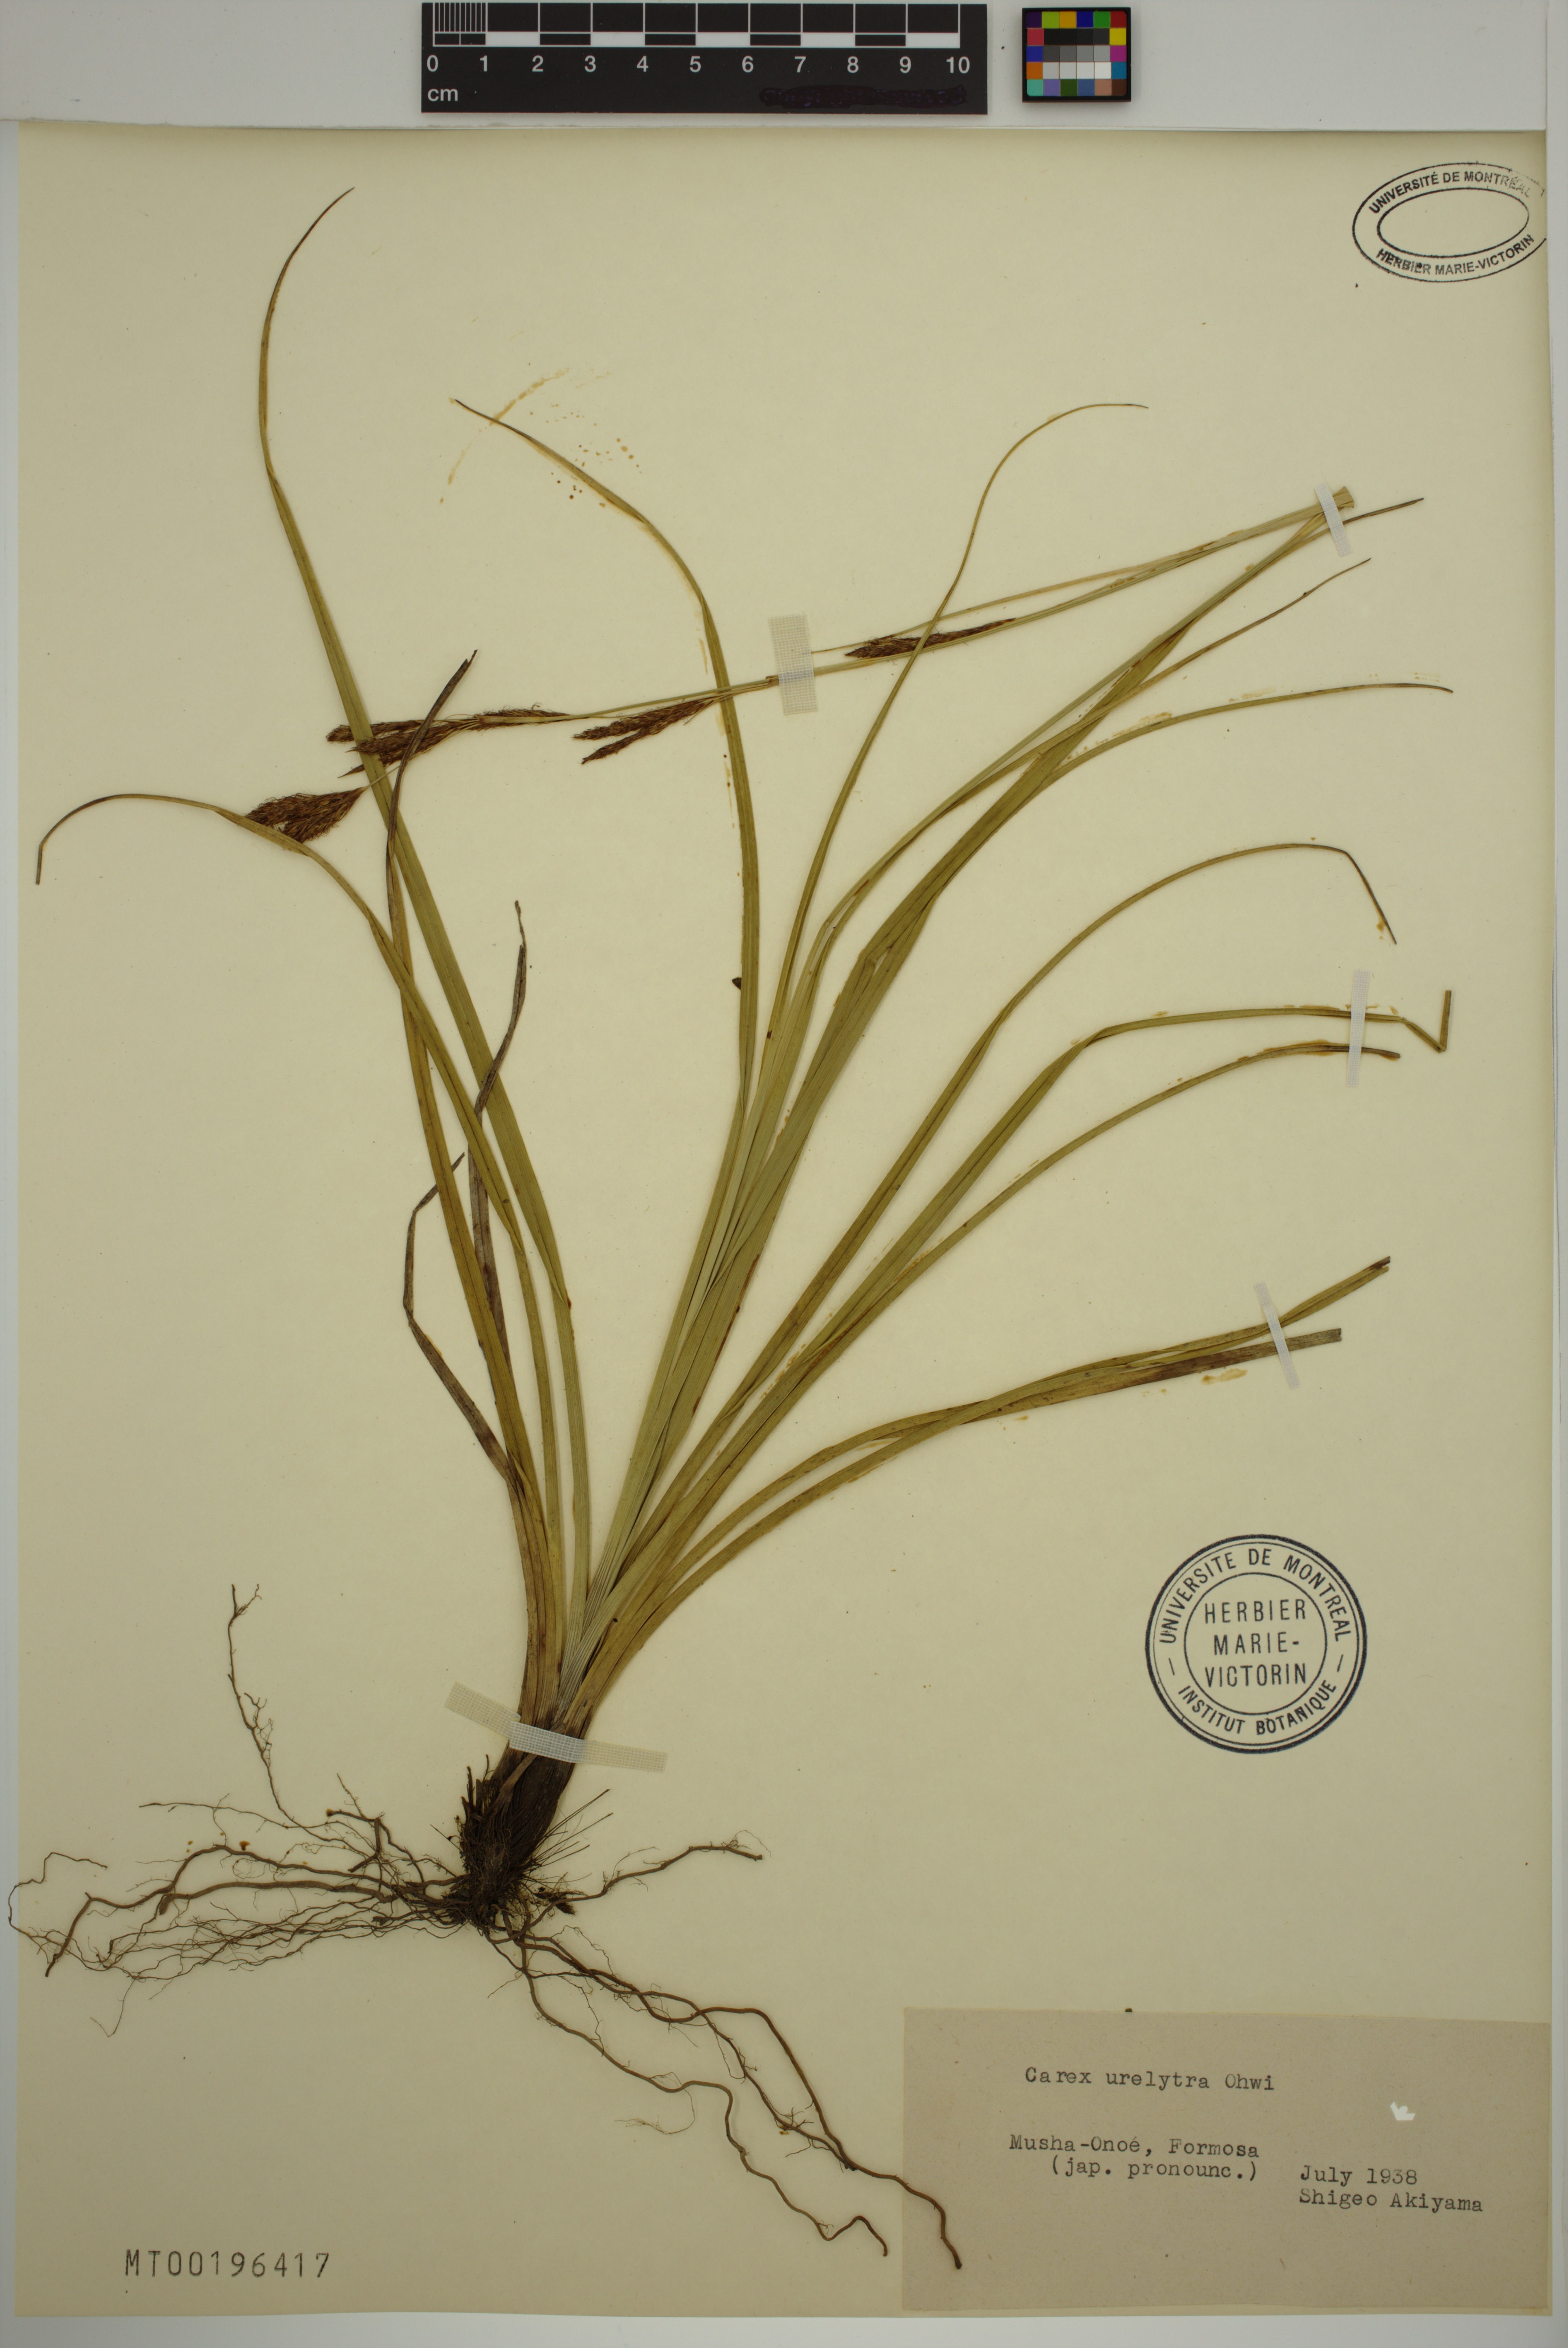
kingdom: Plantae
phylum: Tracheophyta
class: Liliopsida
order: Poales
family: Cyperaceae
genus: Carex
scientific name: Carex urelytra
